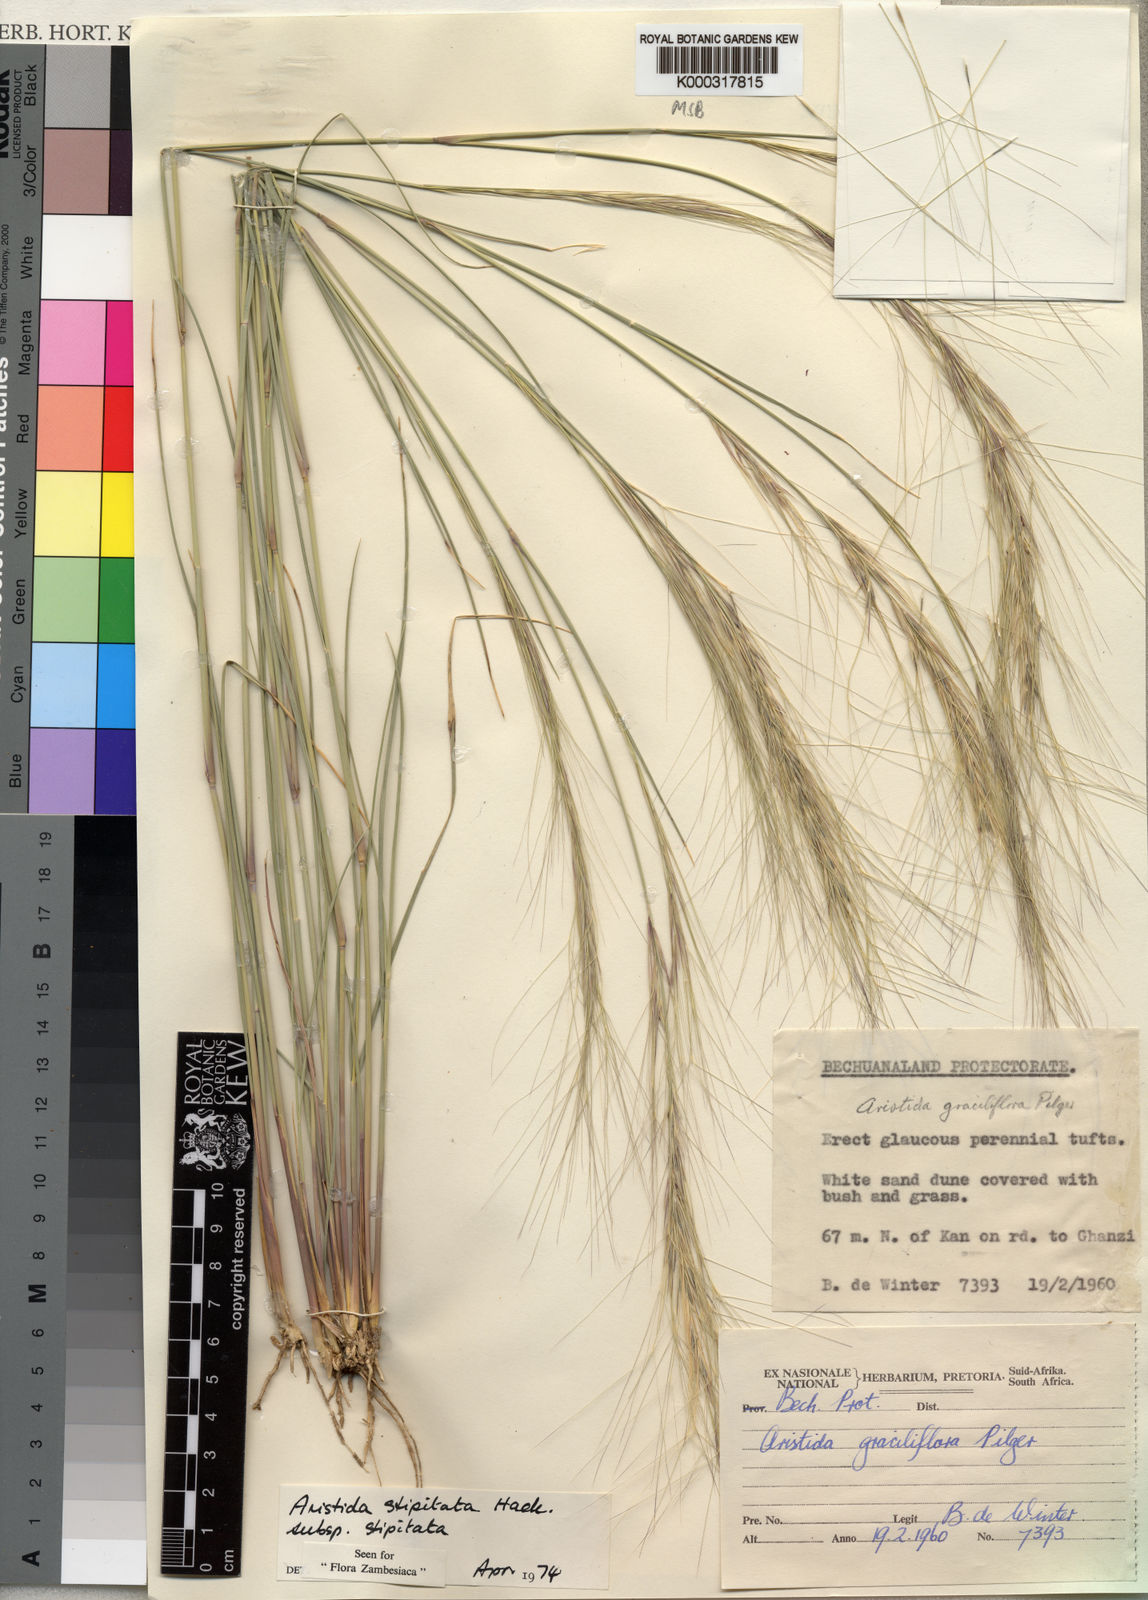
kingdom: Plantae
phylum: Tracheophyta
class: Liliopsida
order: Poales
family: Poaceae
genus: Aristida
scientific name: Aristida stipitata
